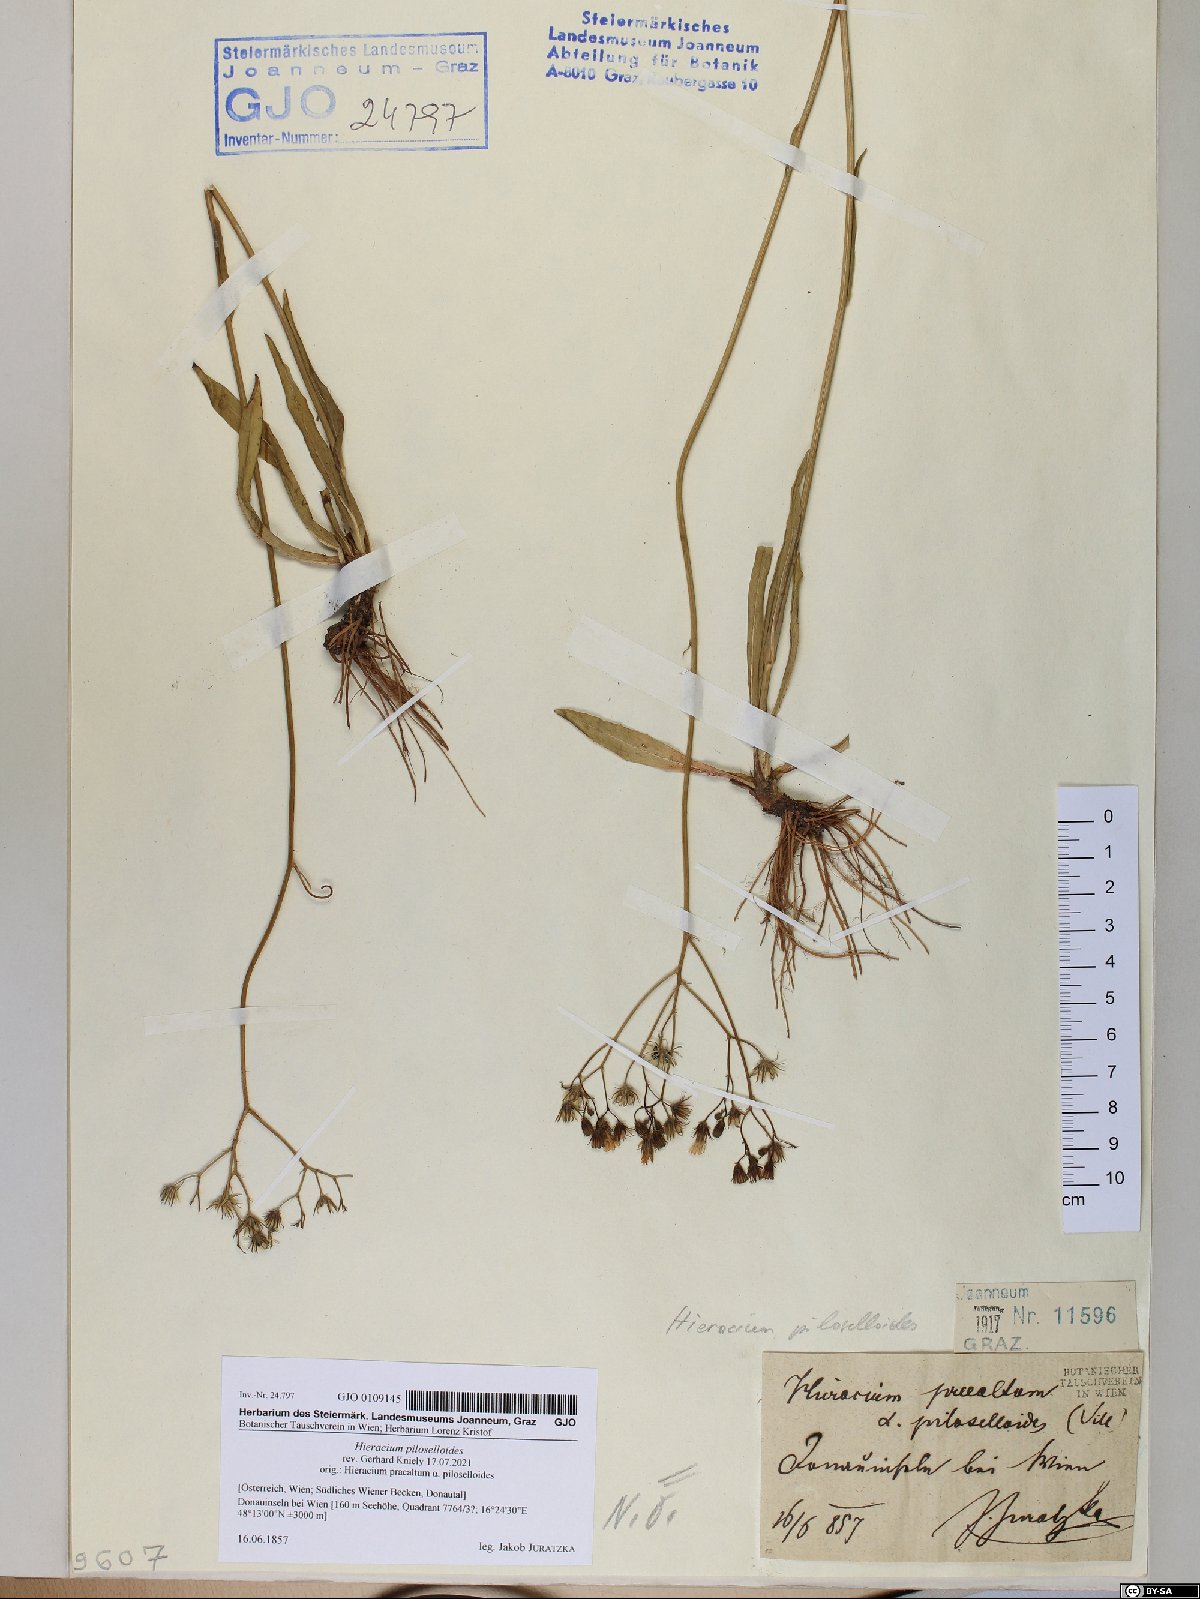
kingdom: Plantae
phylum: Tracheophyta
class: Magnoliopsida
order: Asterales
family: Asteraceae
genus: Pilosella
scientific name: Pilosella piloselloides
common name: Glaucous king-devil
